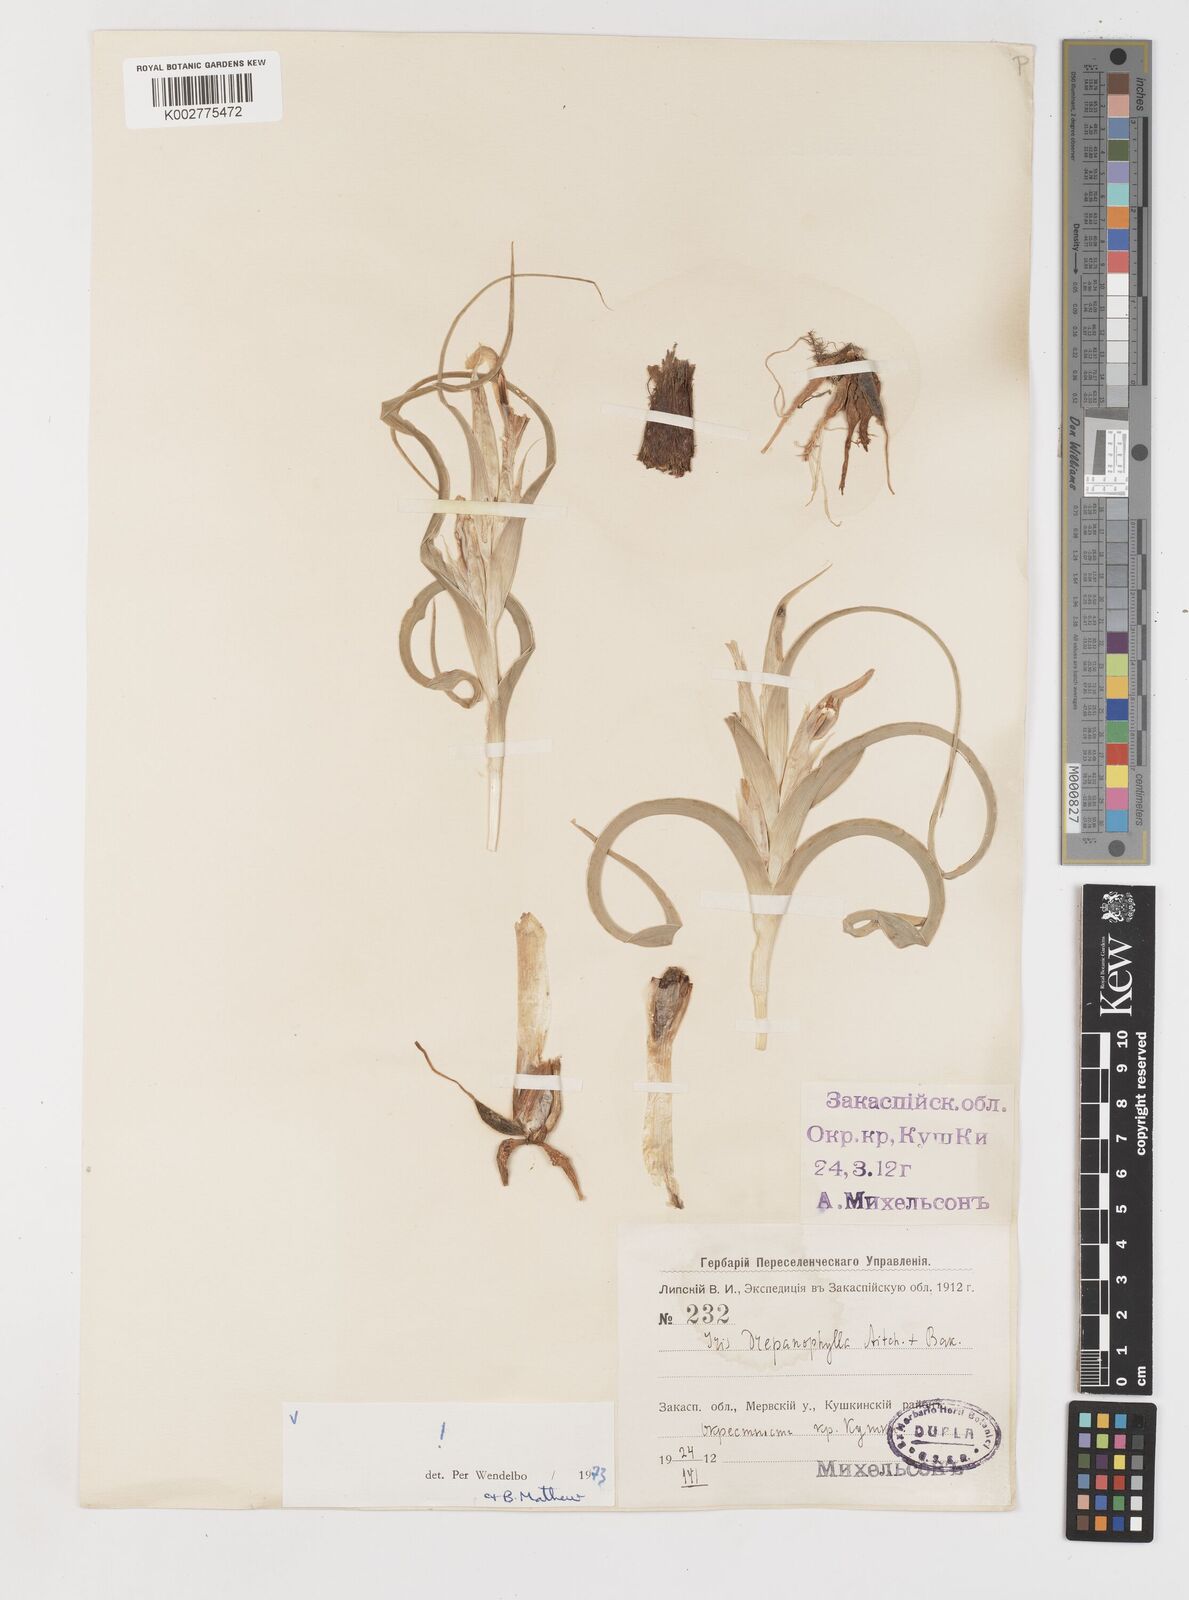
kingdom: Plantae
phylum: Tracheophyta
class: Liliopsida
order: Asparagales
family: Iridaceae
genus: Iris
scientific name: Iris drepanophylla
